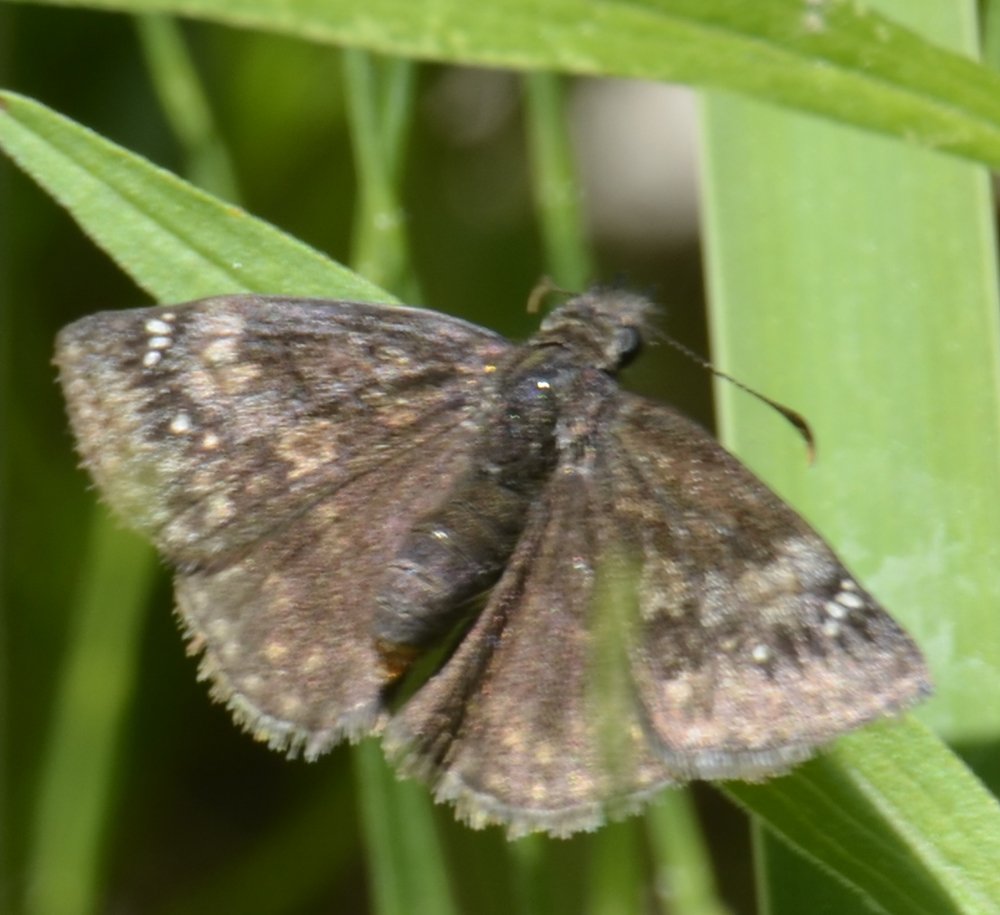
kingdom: Animalia
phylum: Arthropoda
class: Insecta
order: Lepidoptera
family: Hesperiidae
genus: Gesta
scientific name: Gesta
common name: Wild Indigo Duskywing
